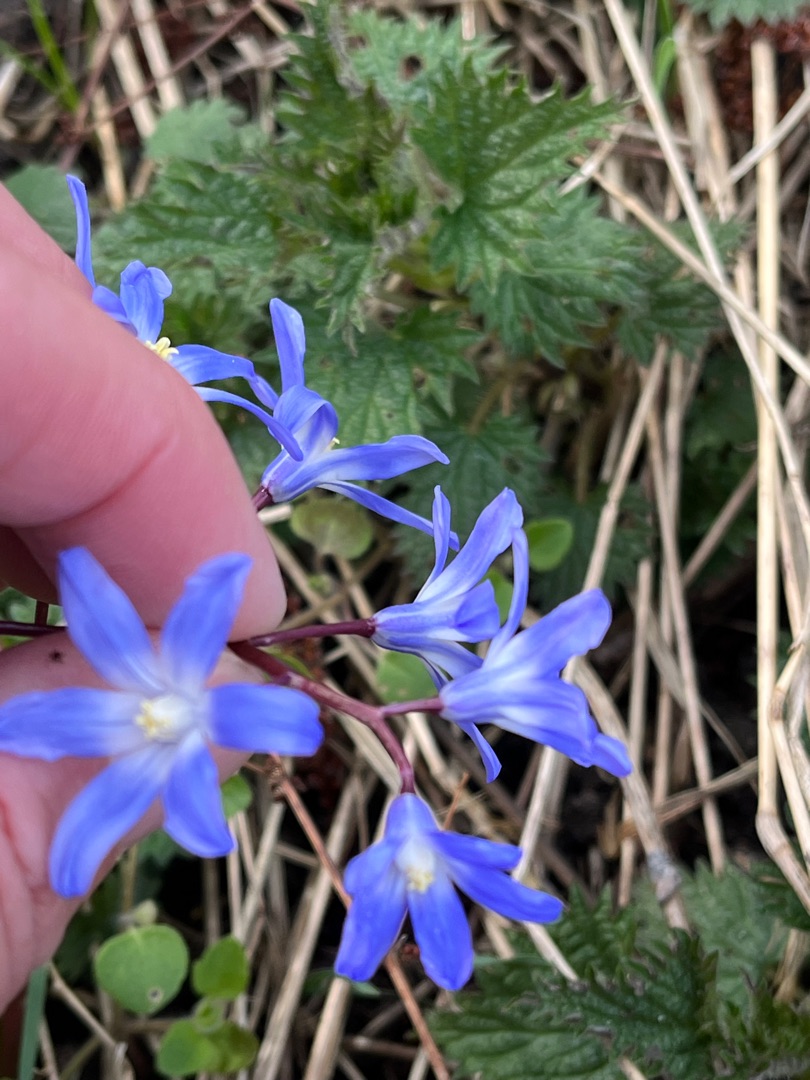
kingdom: Plantae
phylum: Tracheophyta
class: Liliopsida
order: Asparagales
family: Asparagaceae
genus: Scilla
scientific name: Scilla forbesii
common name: Almindelig snepryd
